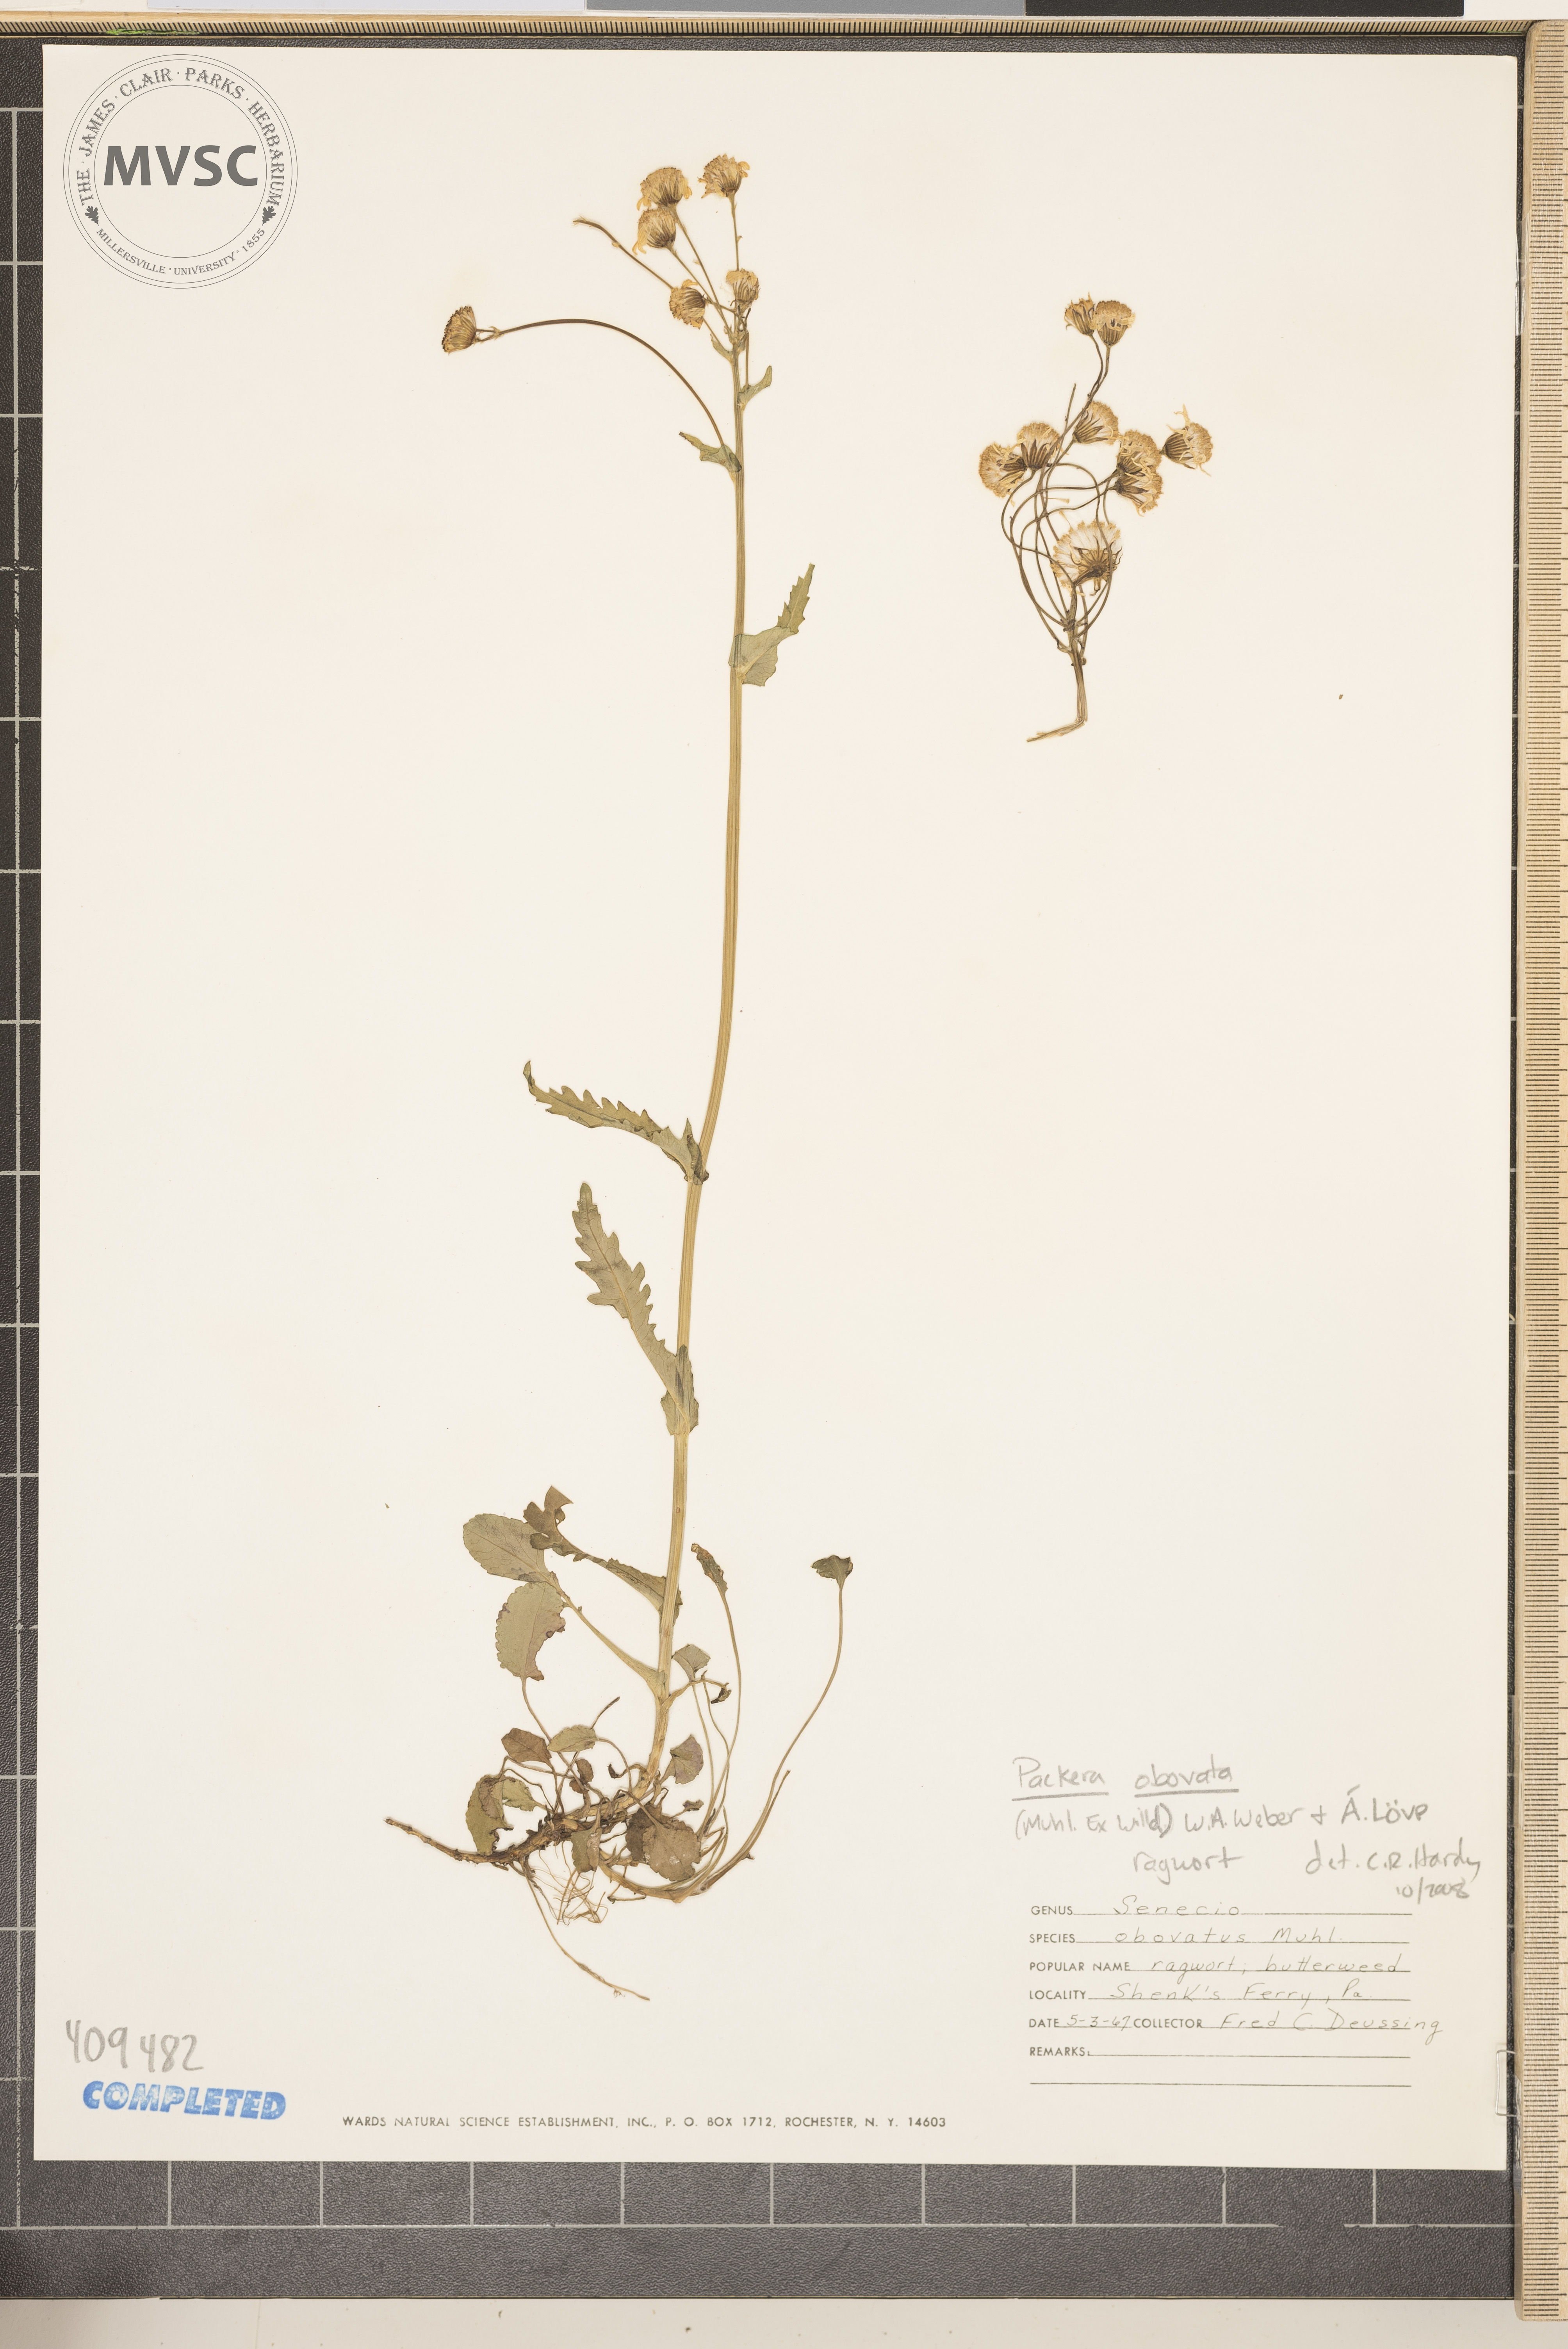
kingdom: Plantae
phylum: Tracheophyta
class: Magnoliopsida
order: Asterales
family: Asteraceae
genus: Packera
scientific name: Packera obovata
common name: Round-leaf ragwort
